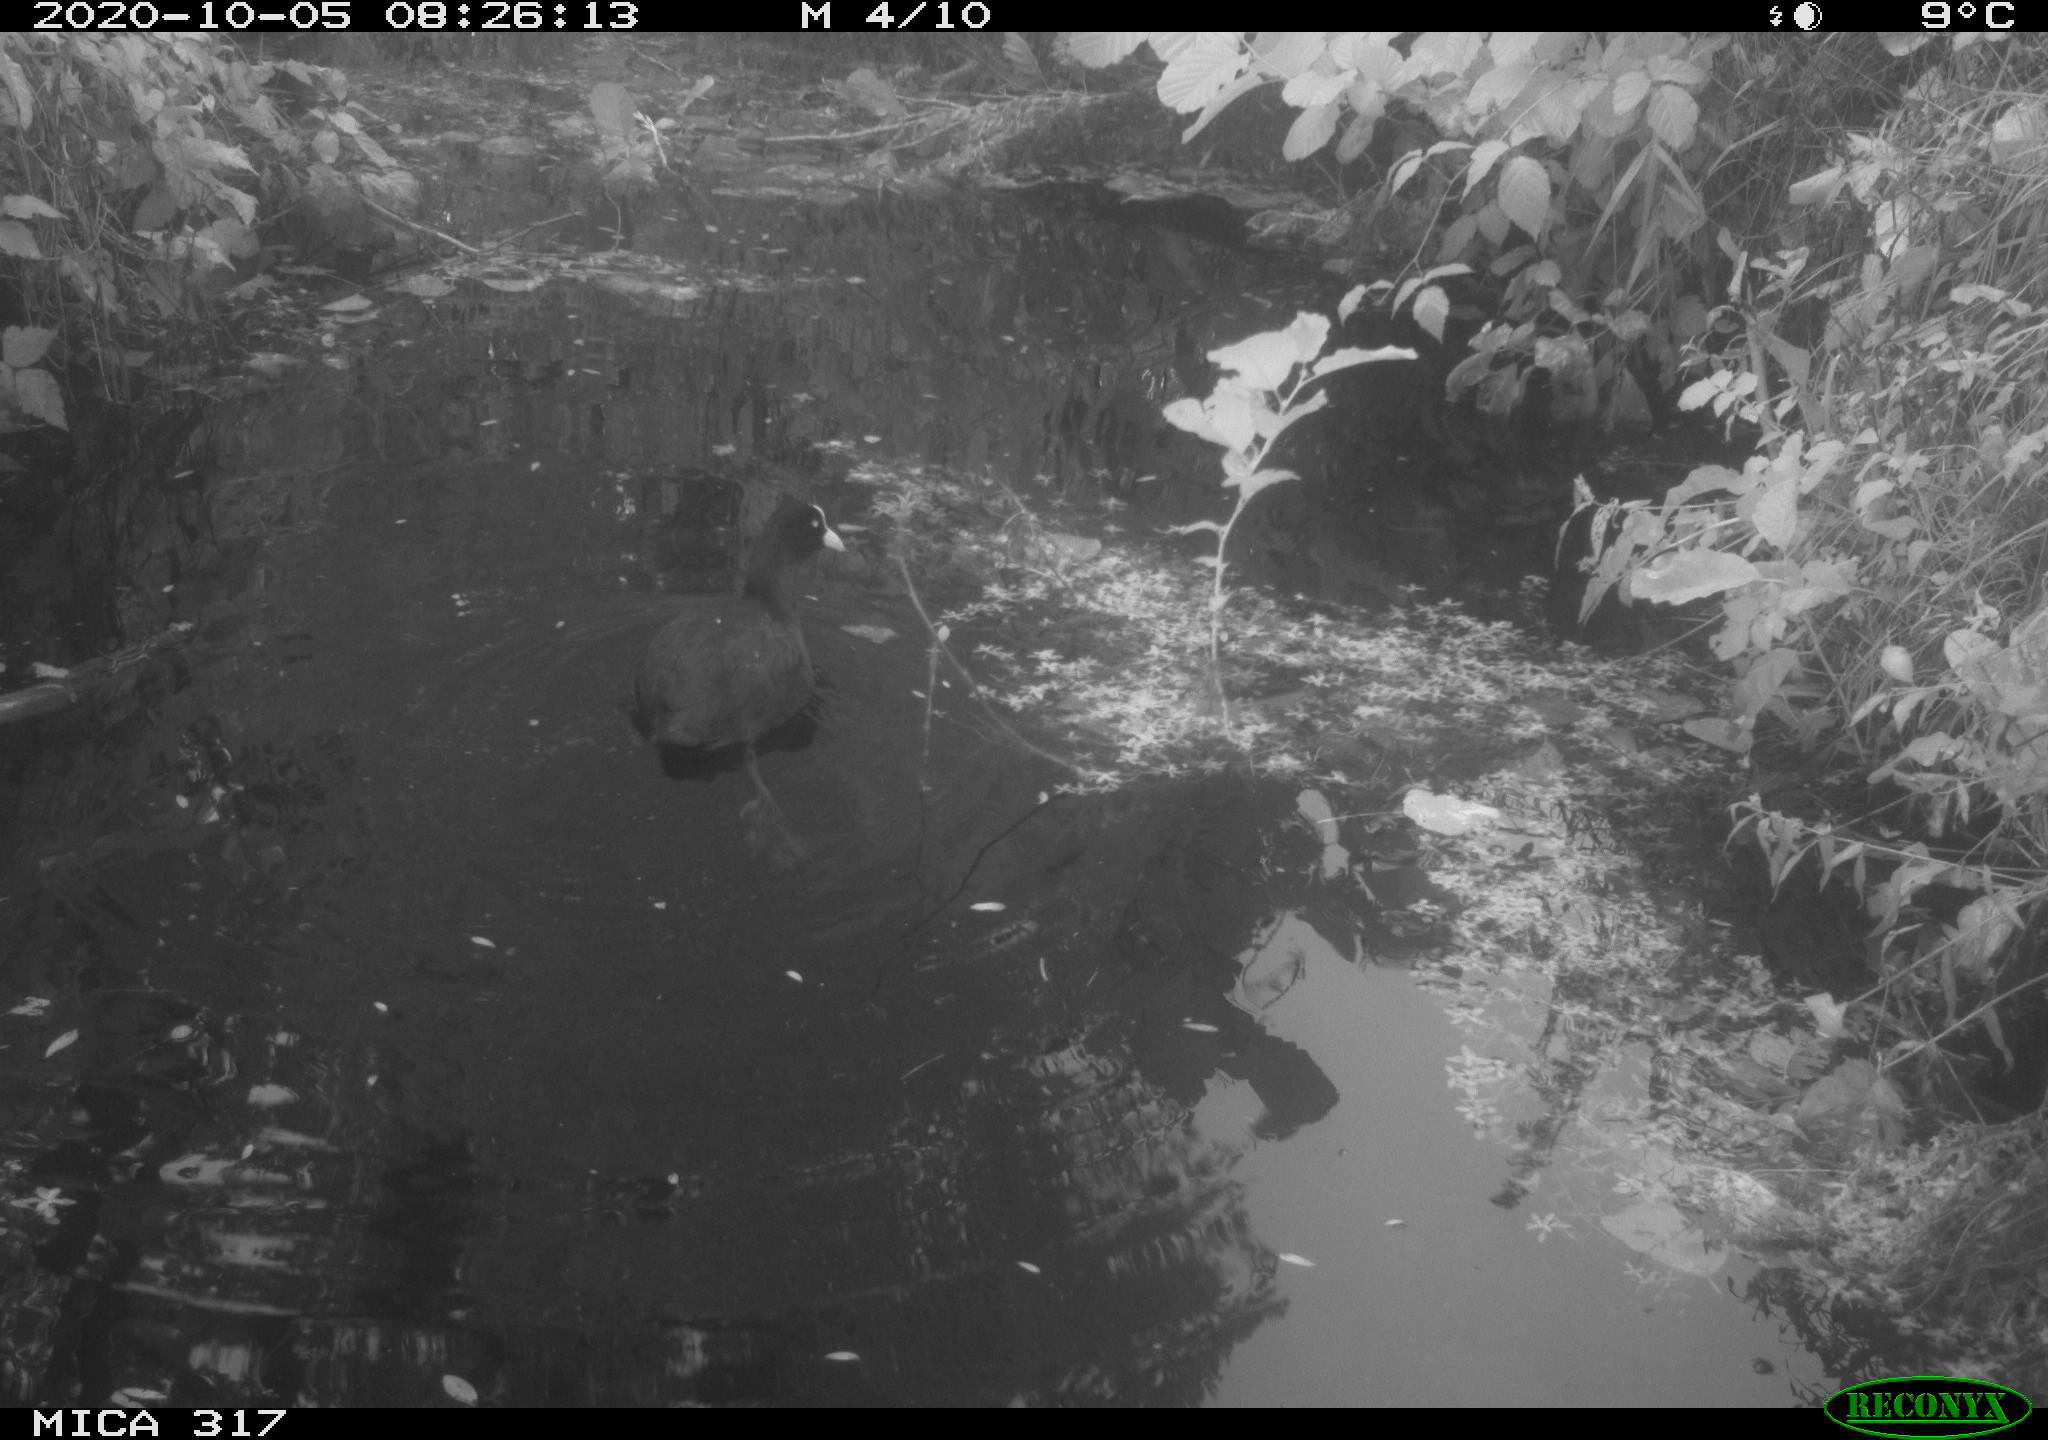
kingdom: Animalia
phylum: Chordata
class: Aves
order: Gruiformes
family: Rallidae
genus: Fulica
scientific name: Fulica atra
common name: Eurasian coot
